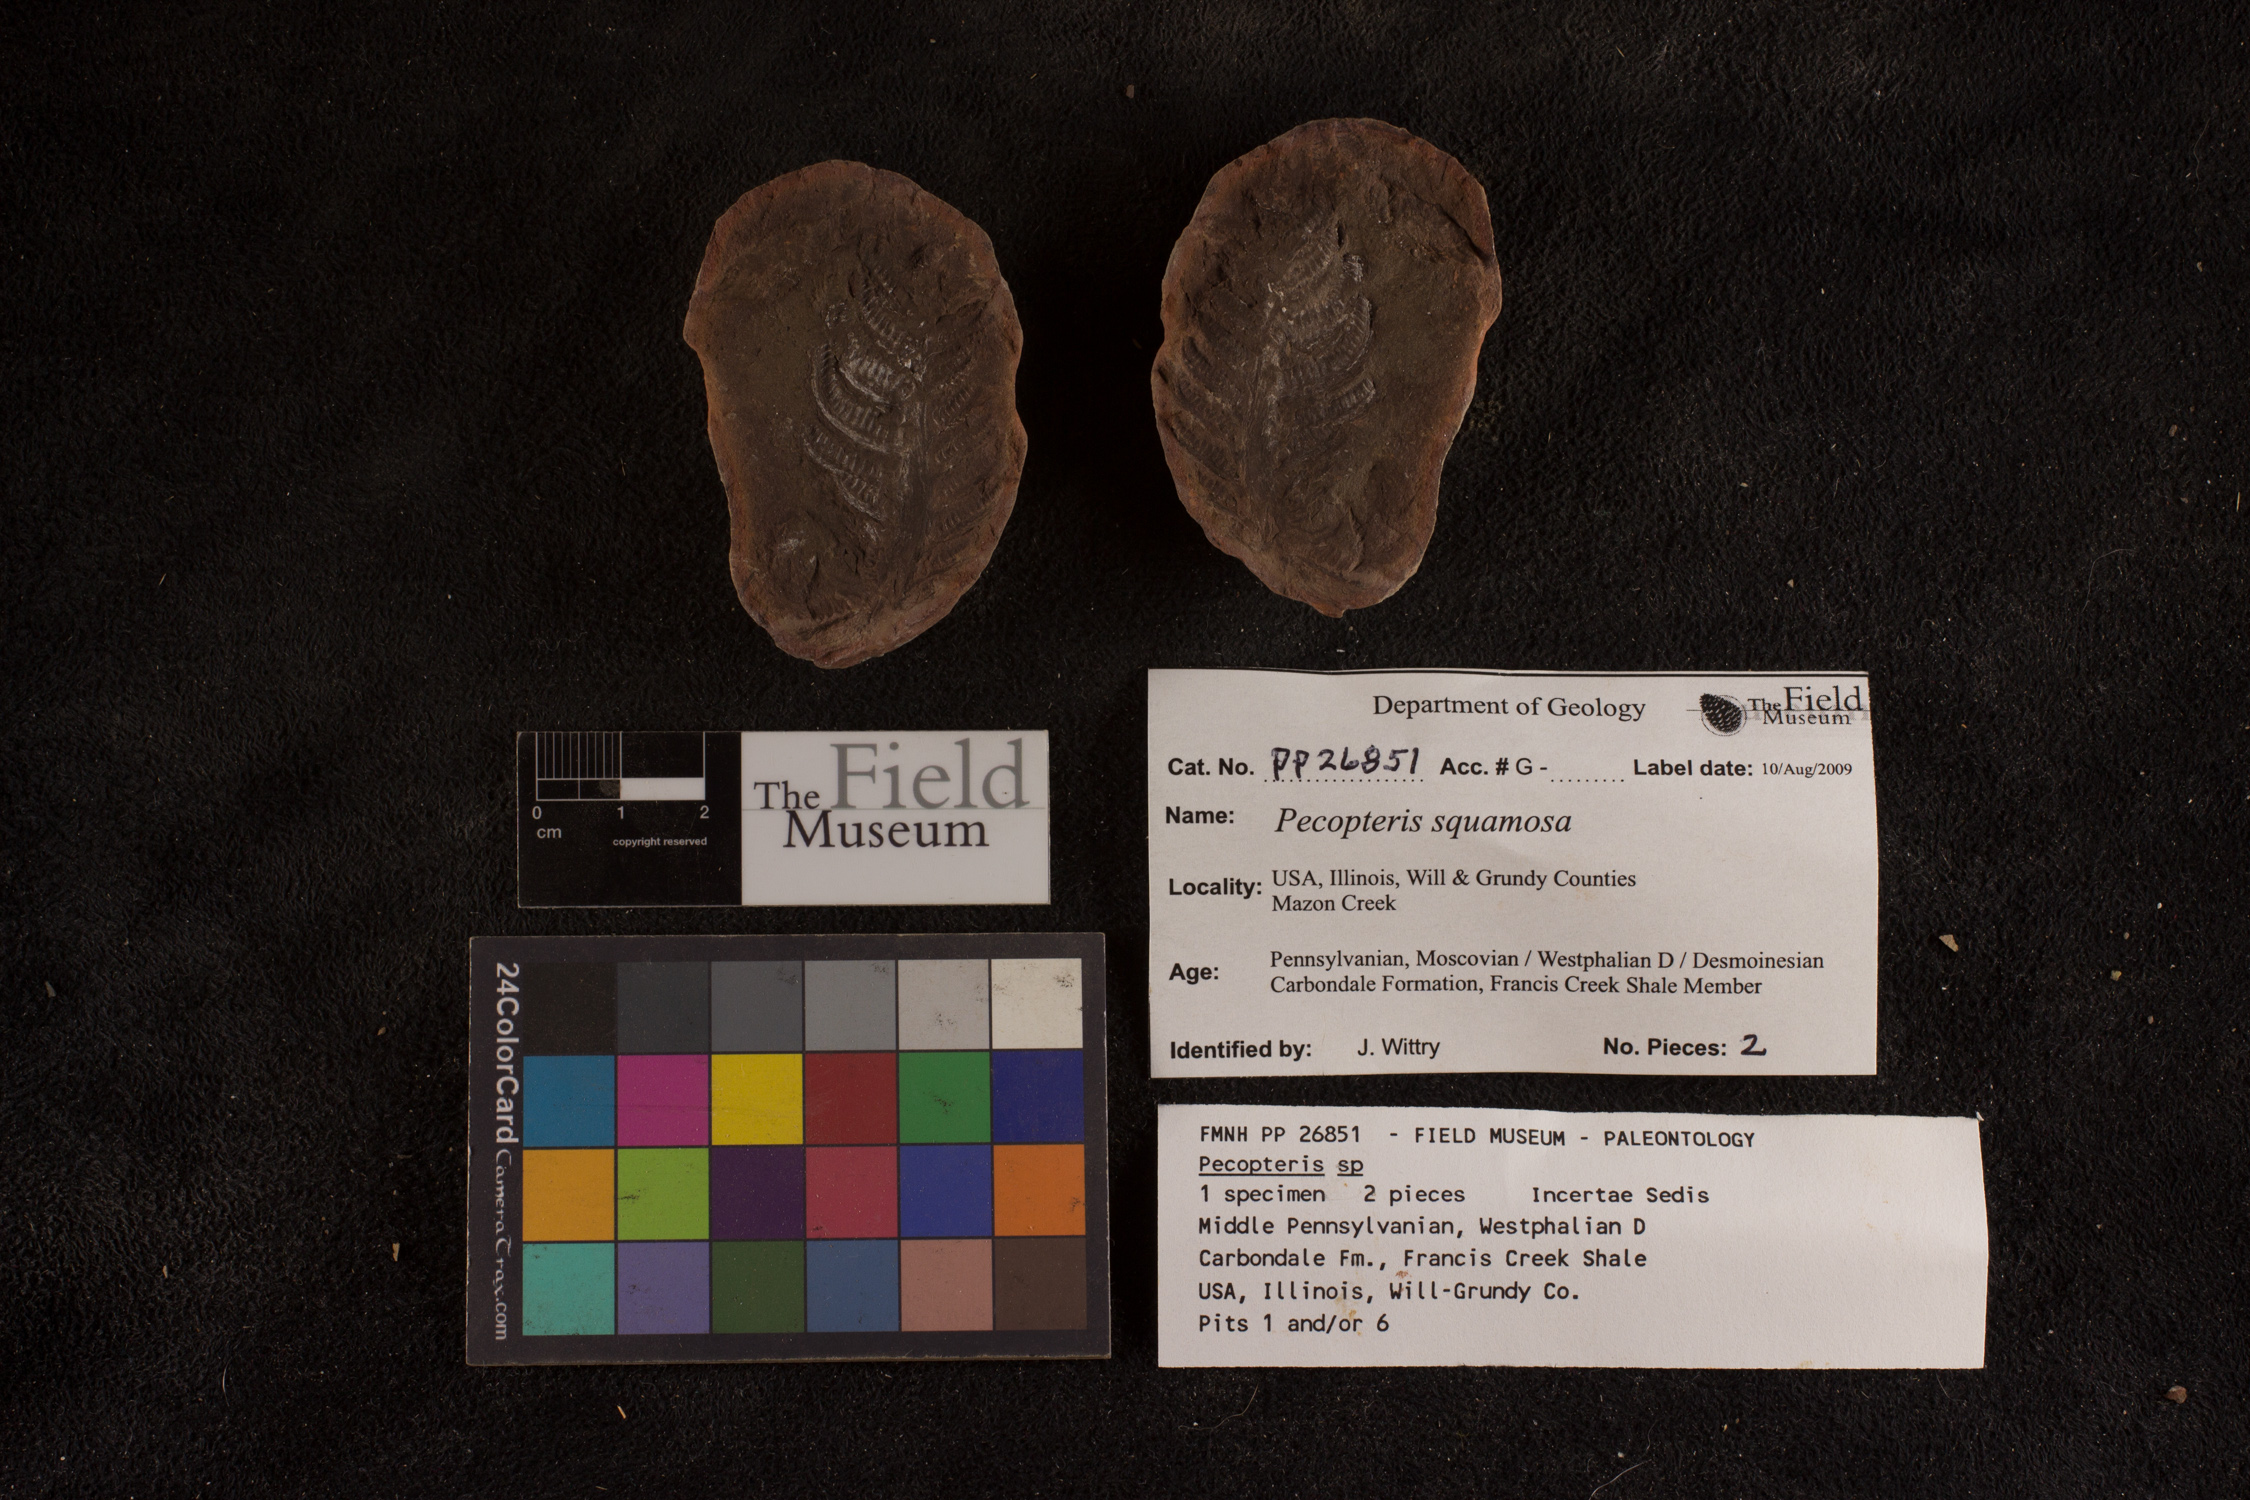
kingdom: Plantae
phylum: Tracheophyta
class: Polypodiopsida
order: Marattiales
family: Asterothecaceae
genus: Pecopteris
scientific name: Pecopteris
